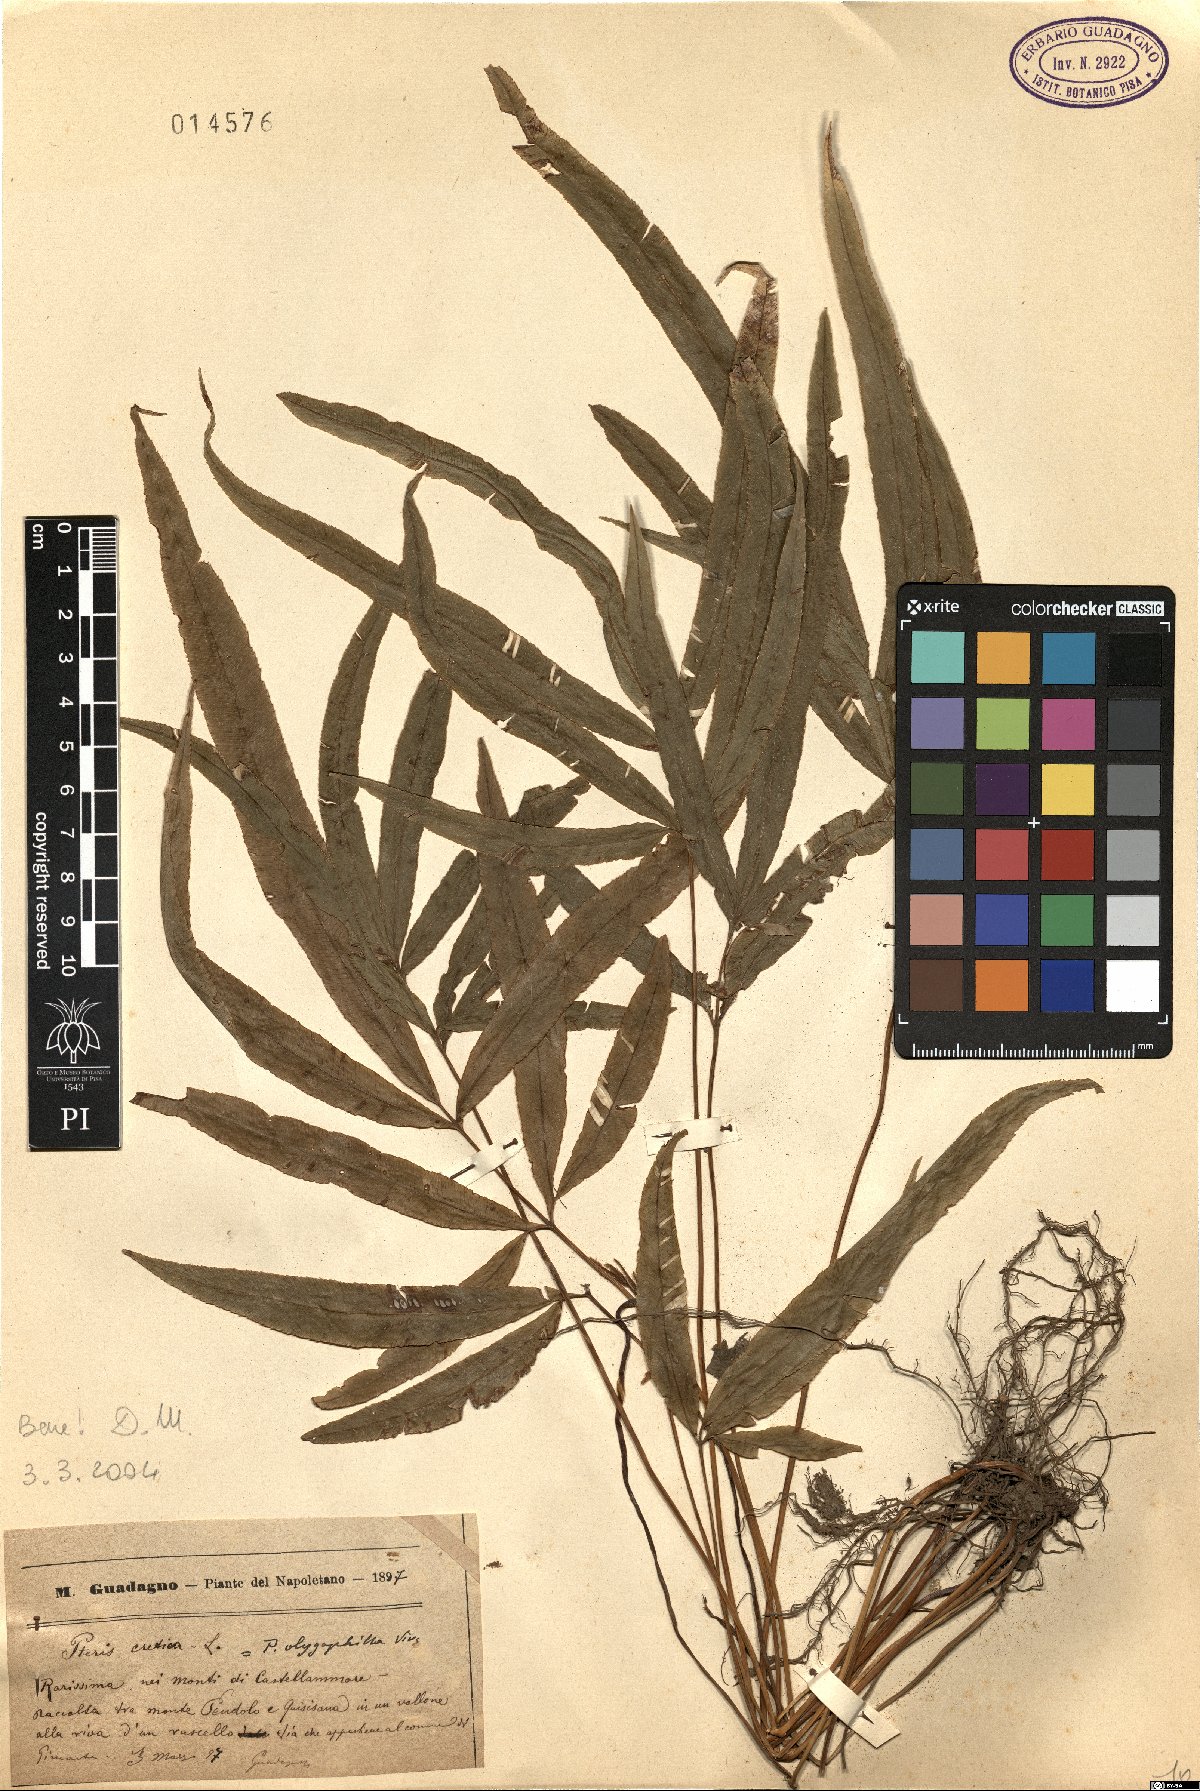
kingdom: Plantae
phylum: Tracheophyta
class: Polypodiopsida
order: Polypodiales
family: Pteridaceae
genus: Pteris
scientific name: Pteris cretica
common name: Ribbon fern
